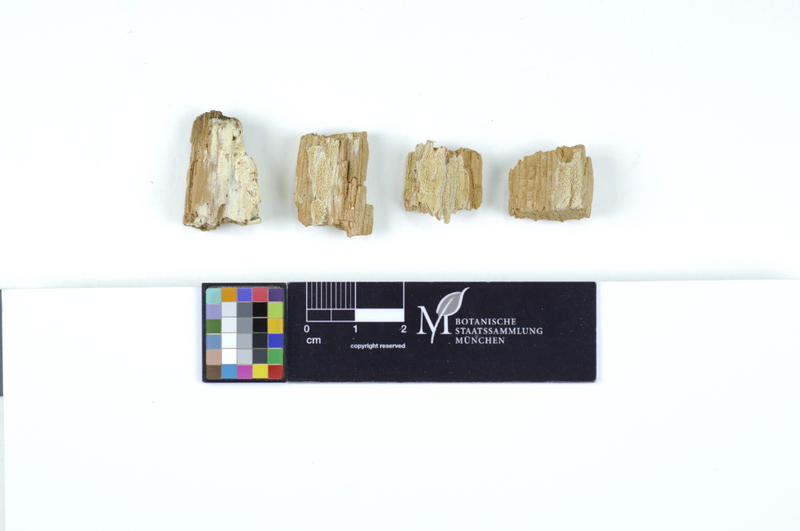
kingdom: Plantae
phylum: Tracheophyta
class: Pinopsida
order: Pinales
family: Pinaceae
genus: Picea
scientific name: Picea
